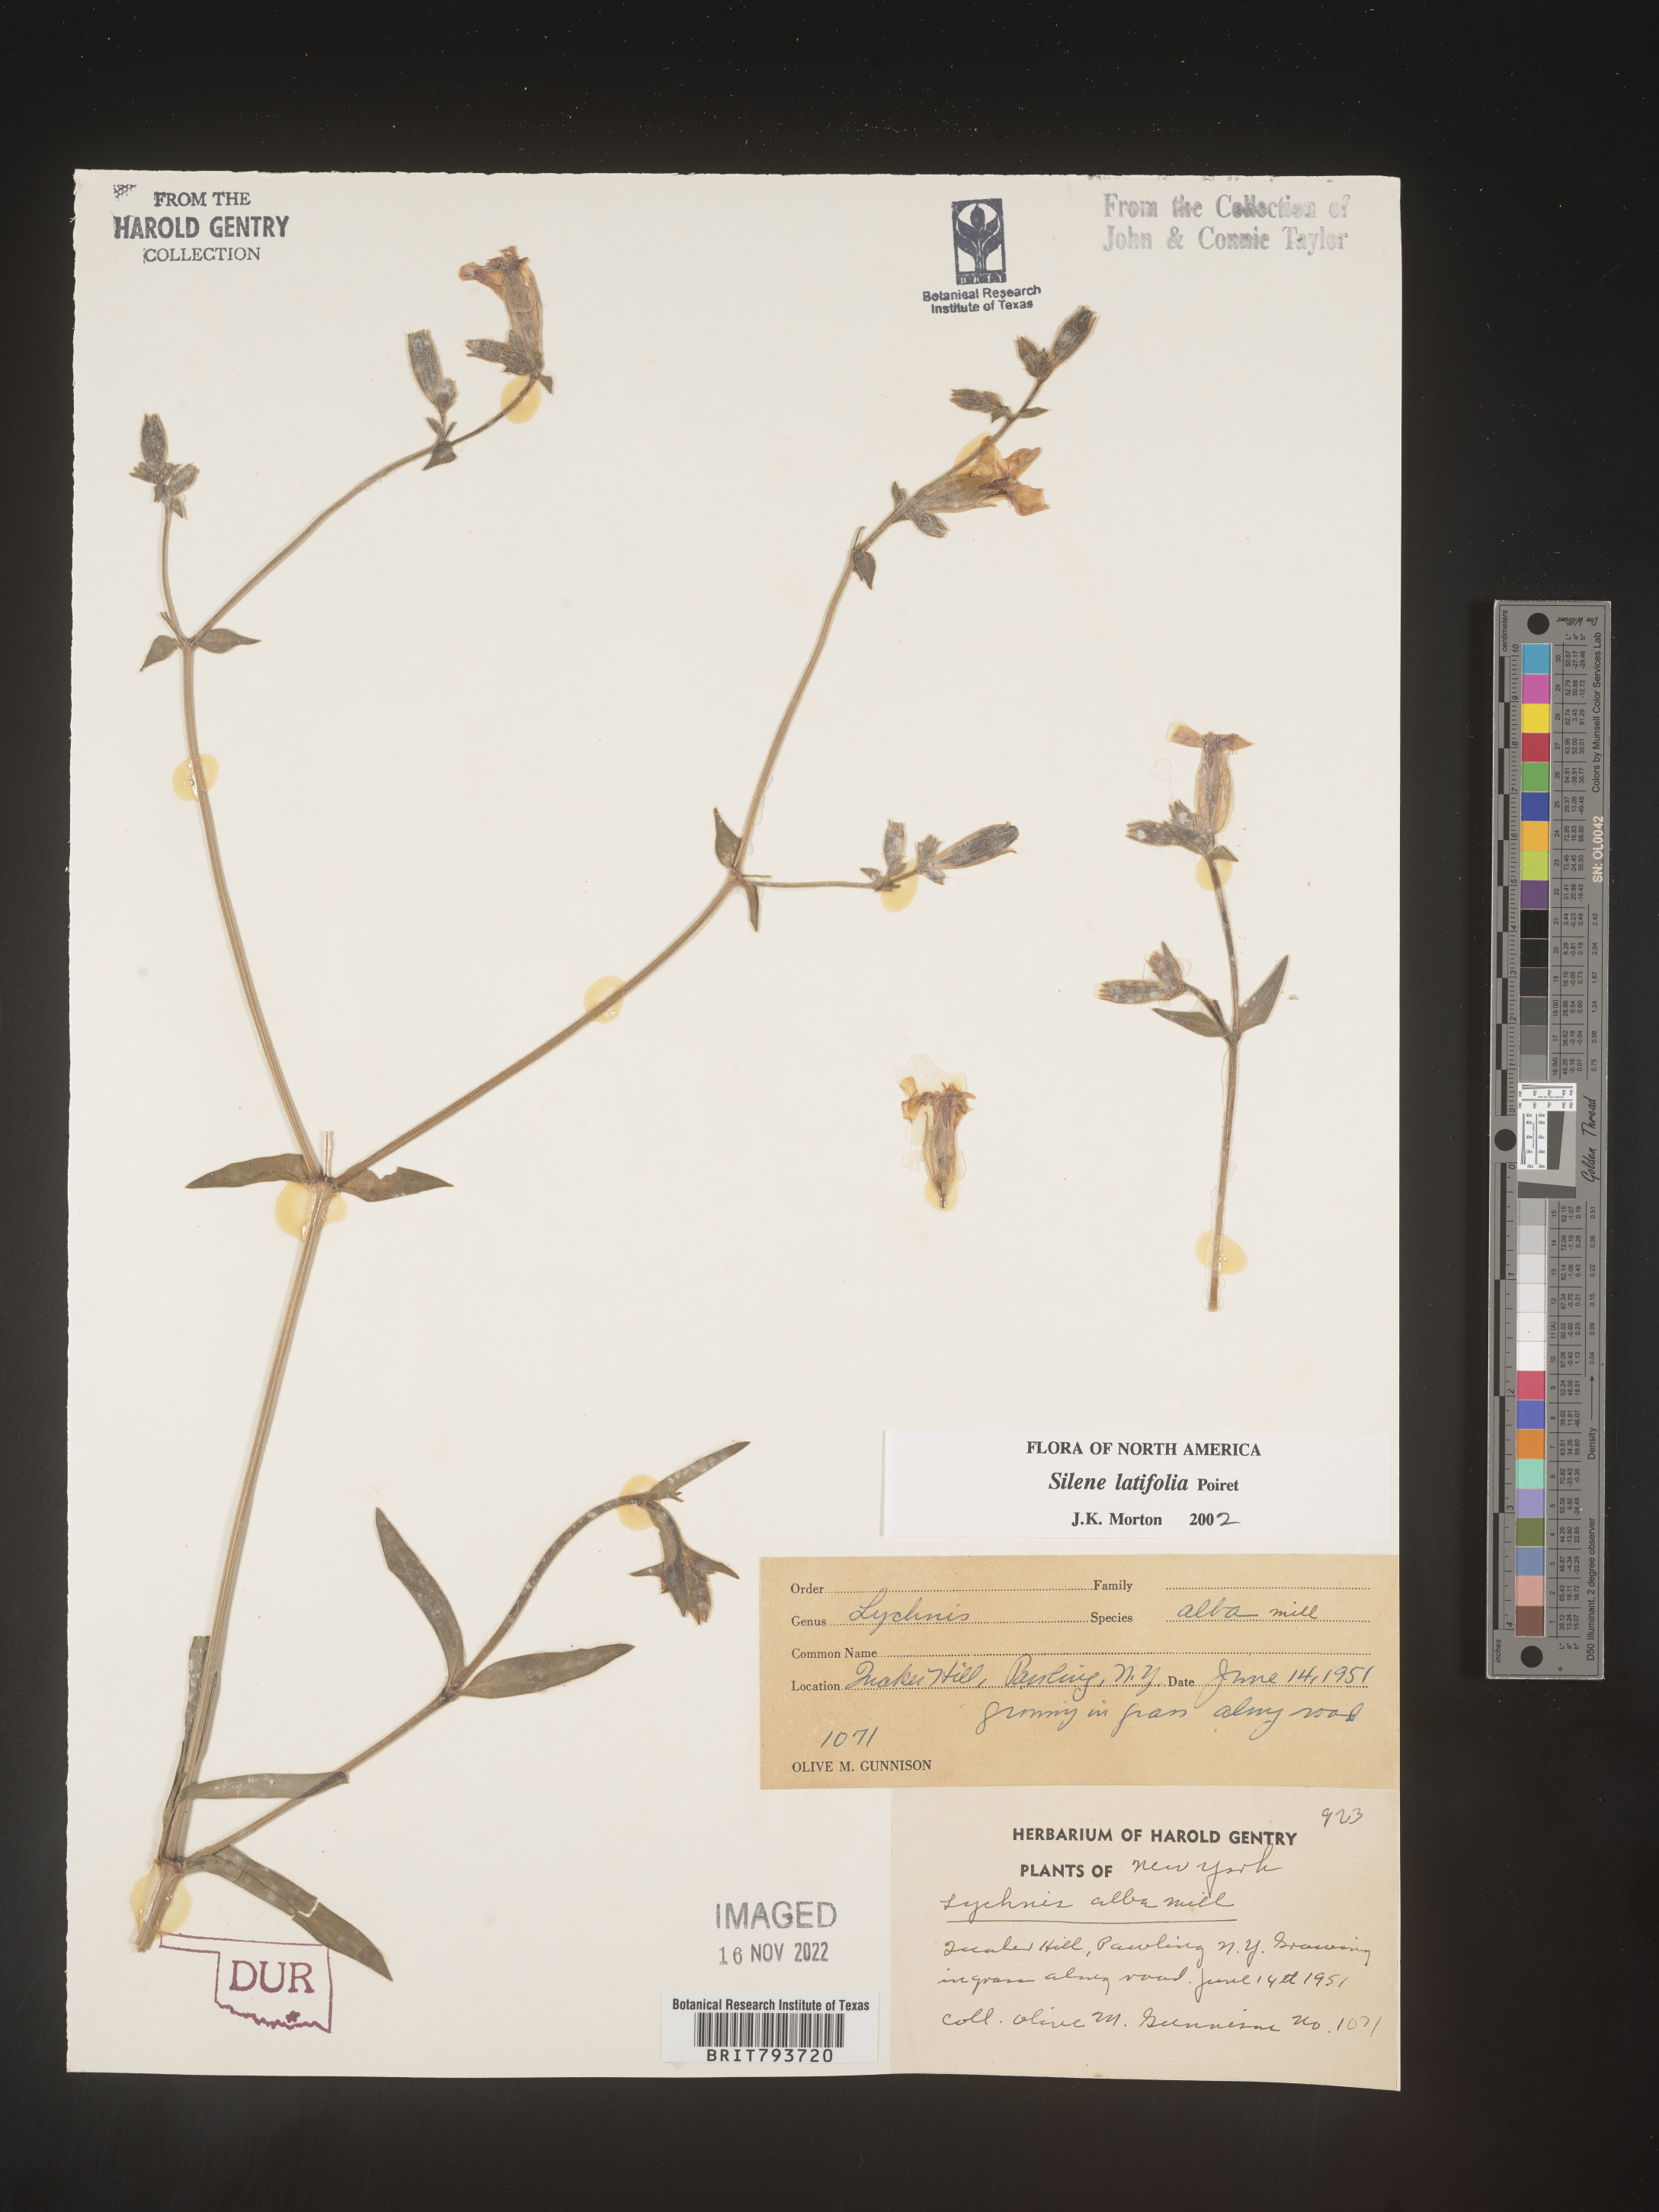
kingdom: Plantae
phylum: Tracheophyta
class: Magnoliopsida
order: Caryophyllales
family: Caryophyllaceae
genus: Silene
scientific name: Silene latifolia
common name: White campion
